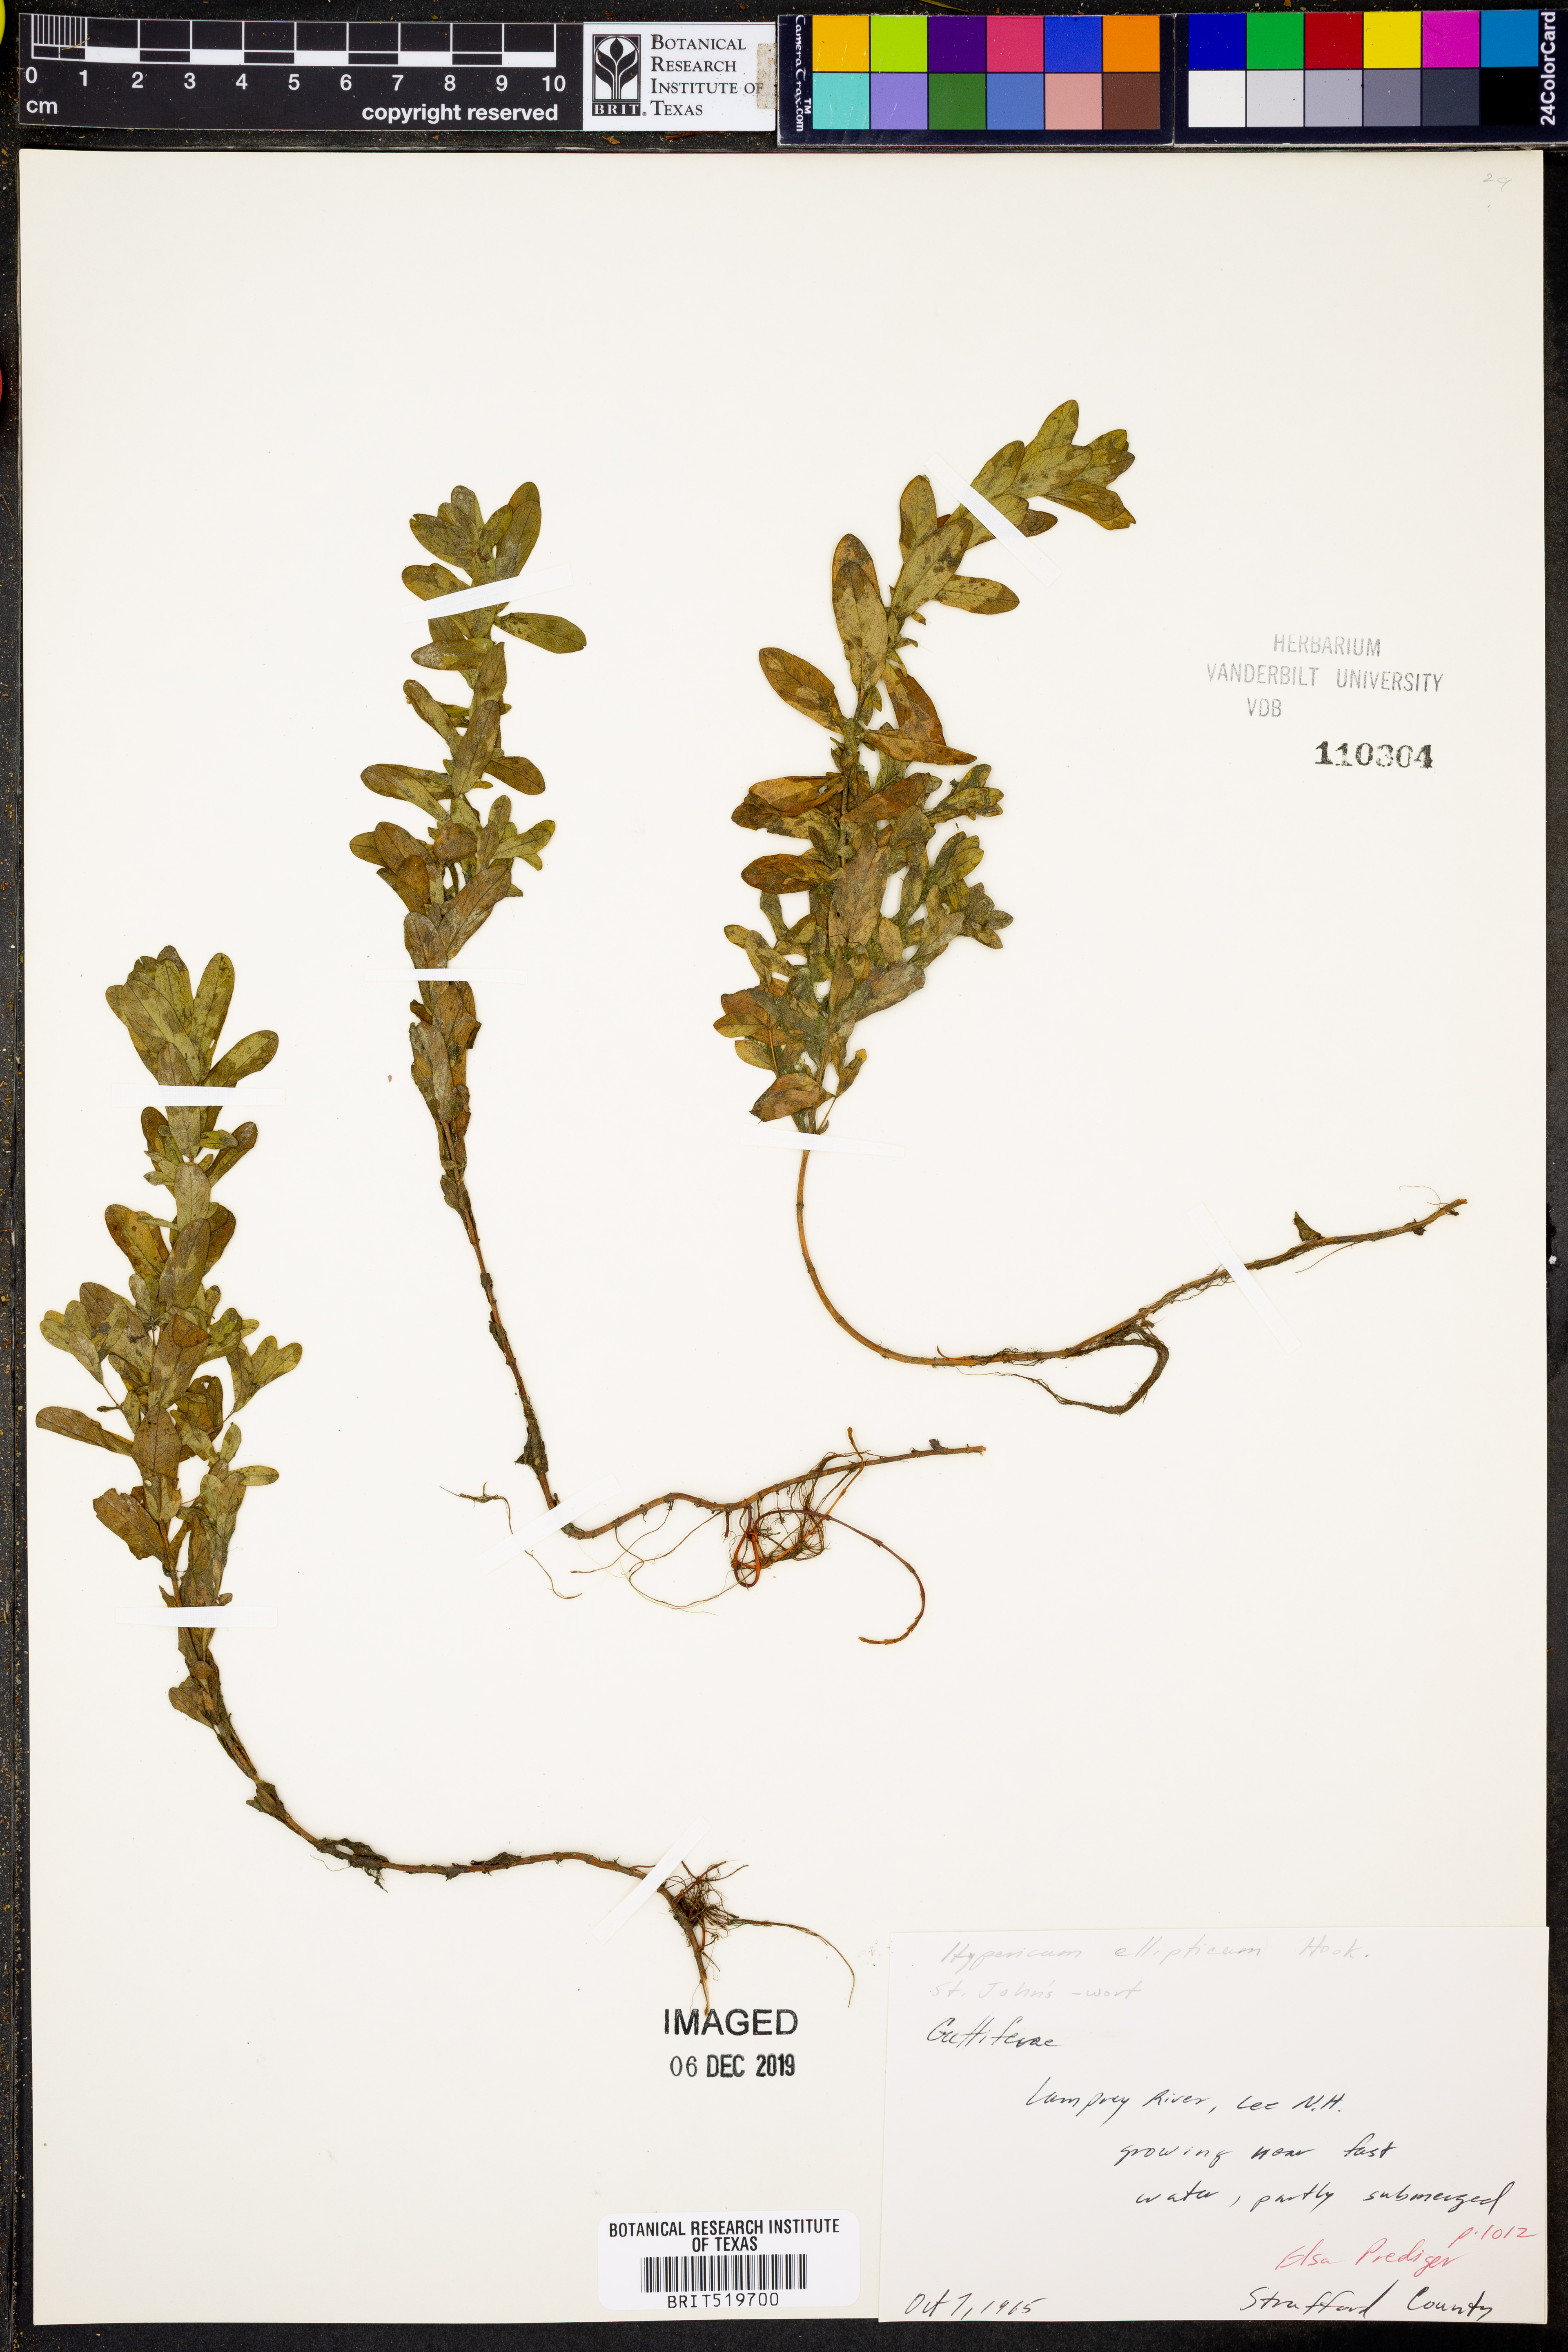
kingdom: Plantae
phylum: Tracheophyta
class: Magnoliopsida
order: Malpighiales
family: Hypericaceae
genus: Hypericum
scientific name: Hypericum ellipticum
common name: Elliptic st. john's-wort
